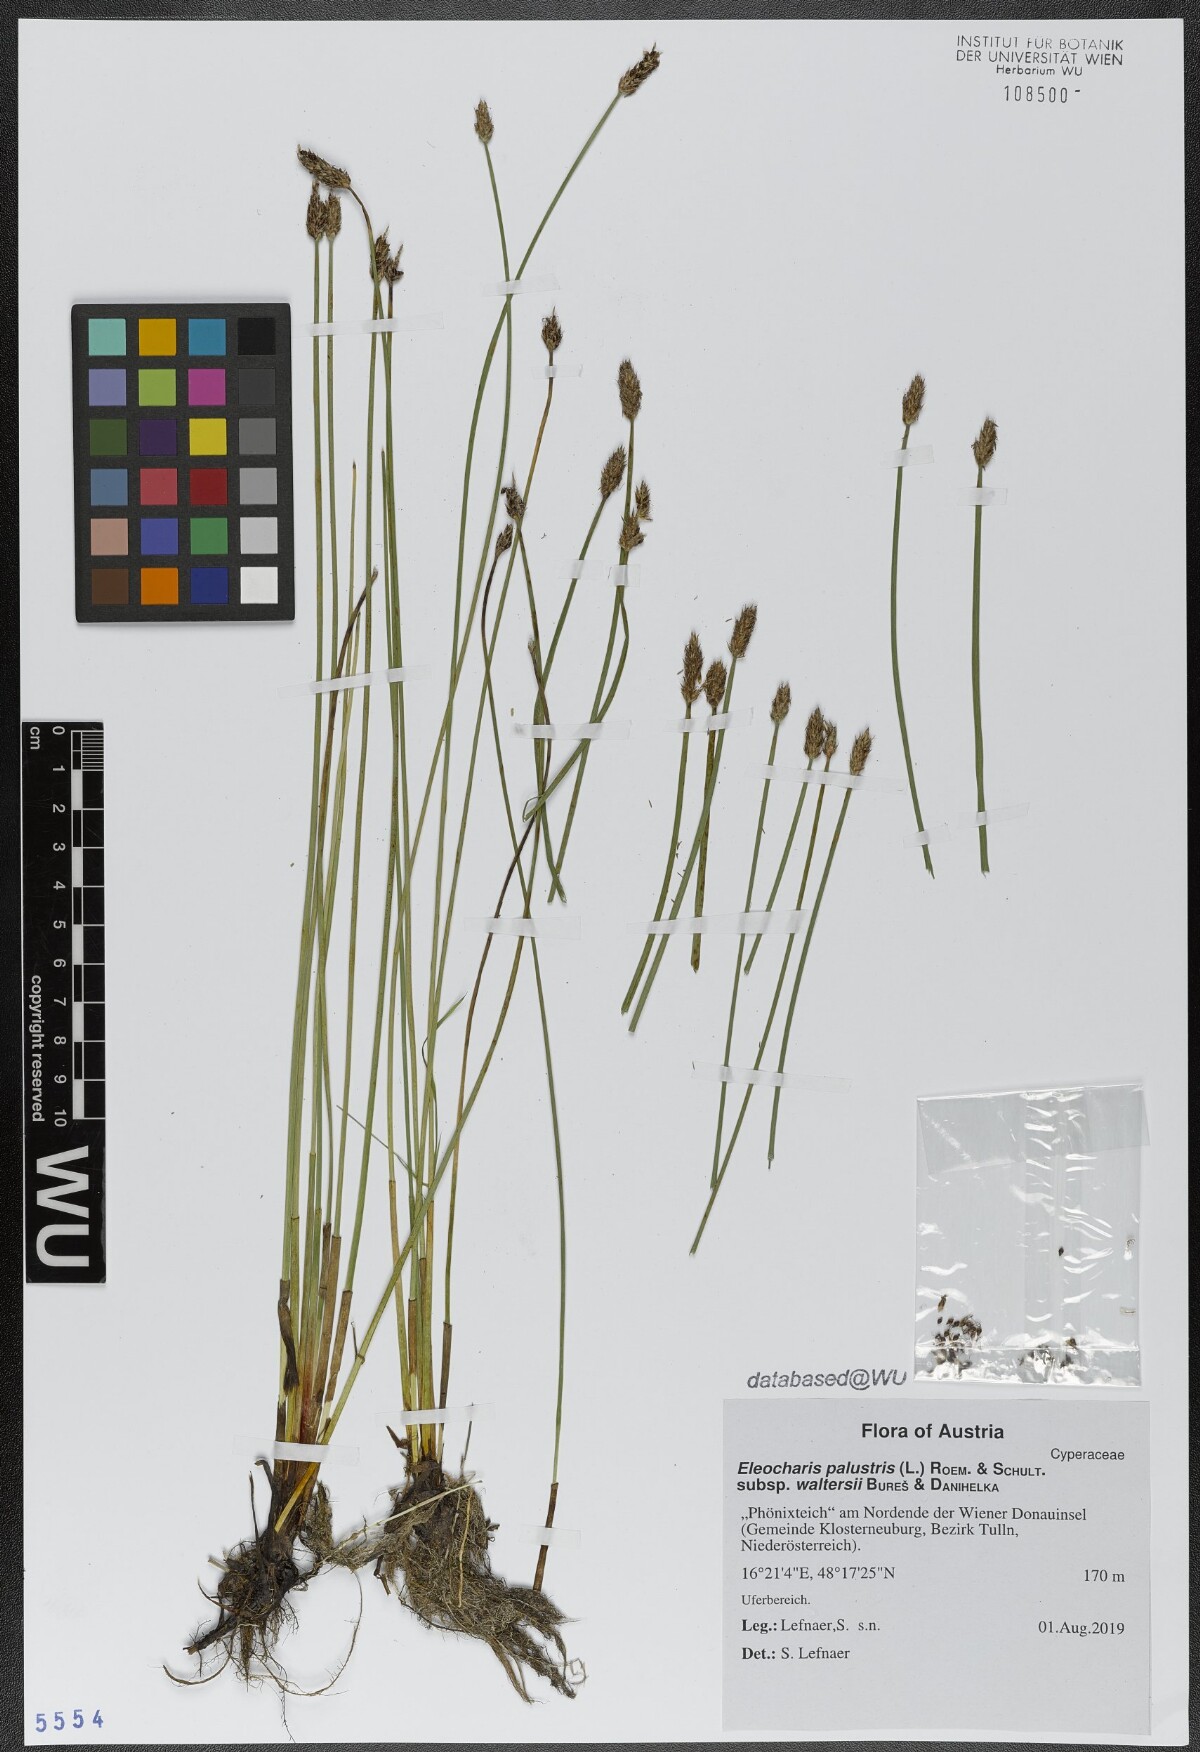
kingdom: Plantae
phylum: Tracheophyta
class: Liliopsida
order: Poales
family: Cyperaceae
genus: Eleocharis
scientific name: Eleocharis palustris
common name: Common spike-rush
